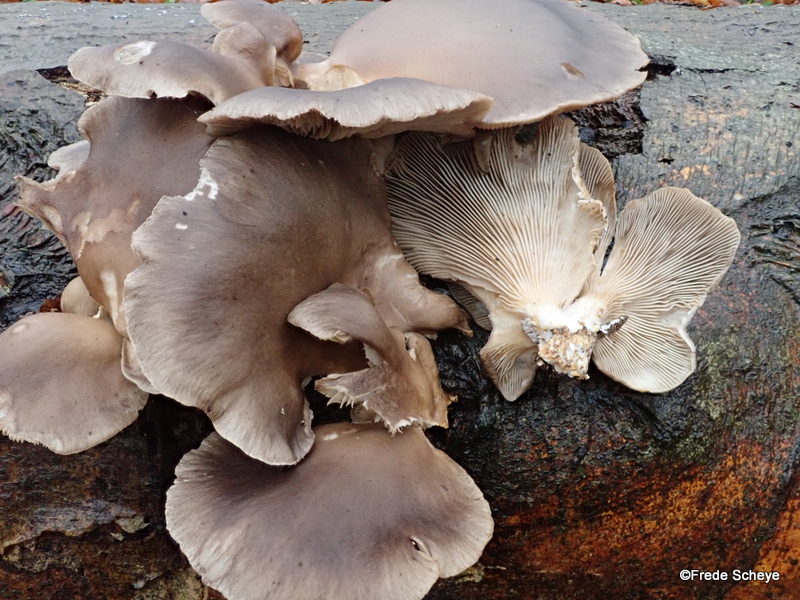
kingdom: Fungi
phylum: Basidiomycota
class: Agaricomycetes
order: Agaricales
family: Pleurotaceae
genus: Pleurotus
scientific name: Pleurotus ostreatus
